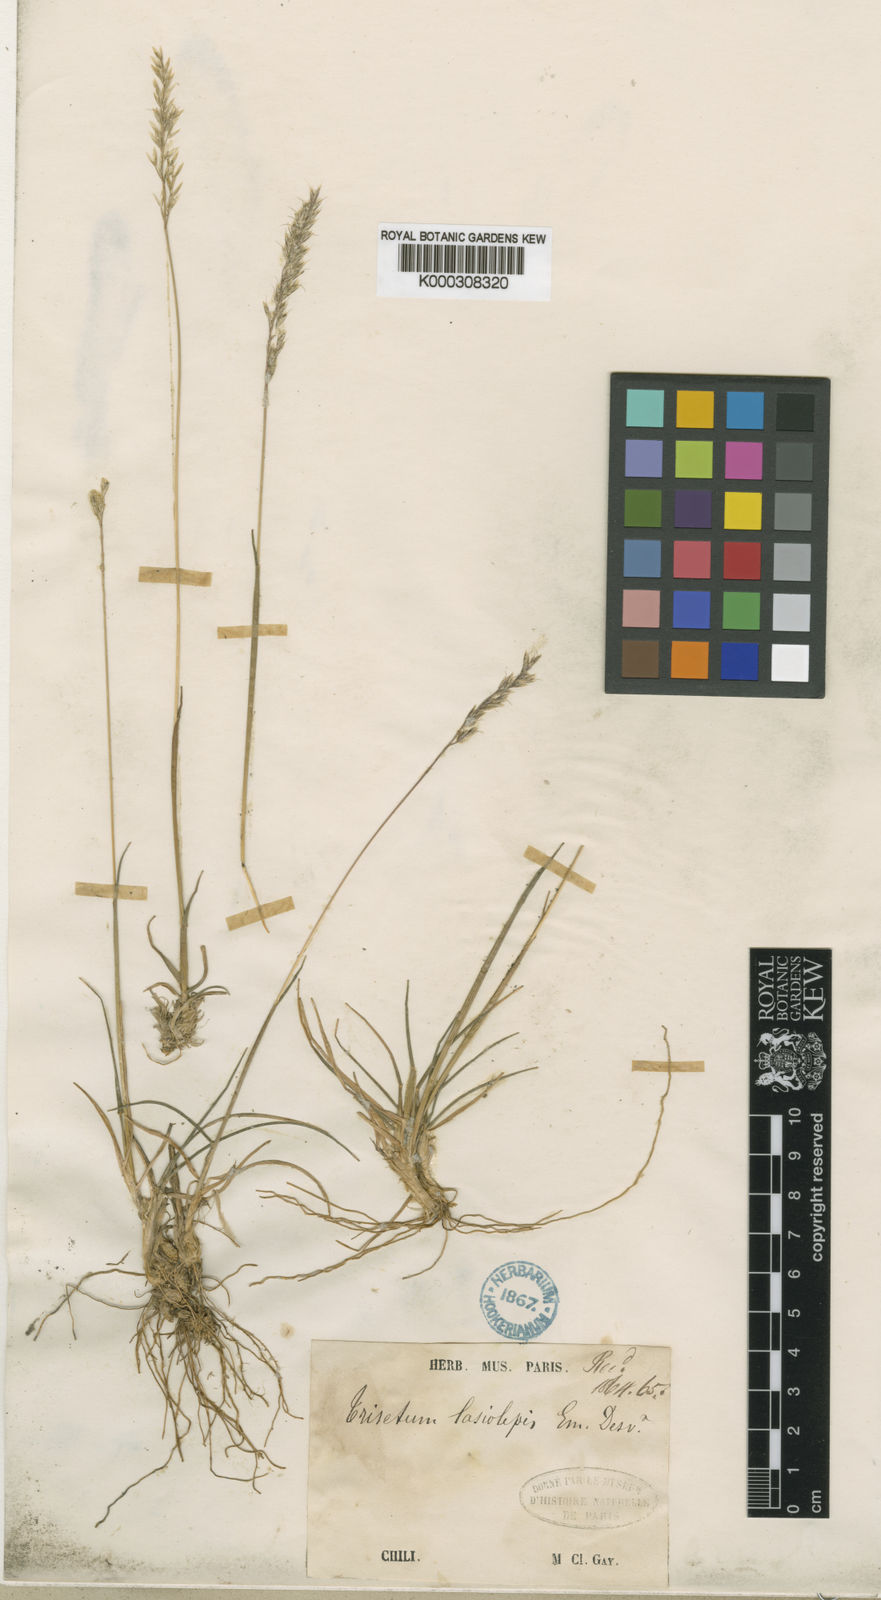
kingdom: Plantae
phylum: Tracheophyta
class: Liliopsida
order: Poales
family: Poaceae
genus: Koeleria
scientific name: Koeleria preslii
